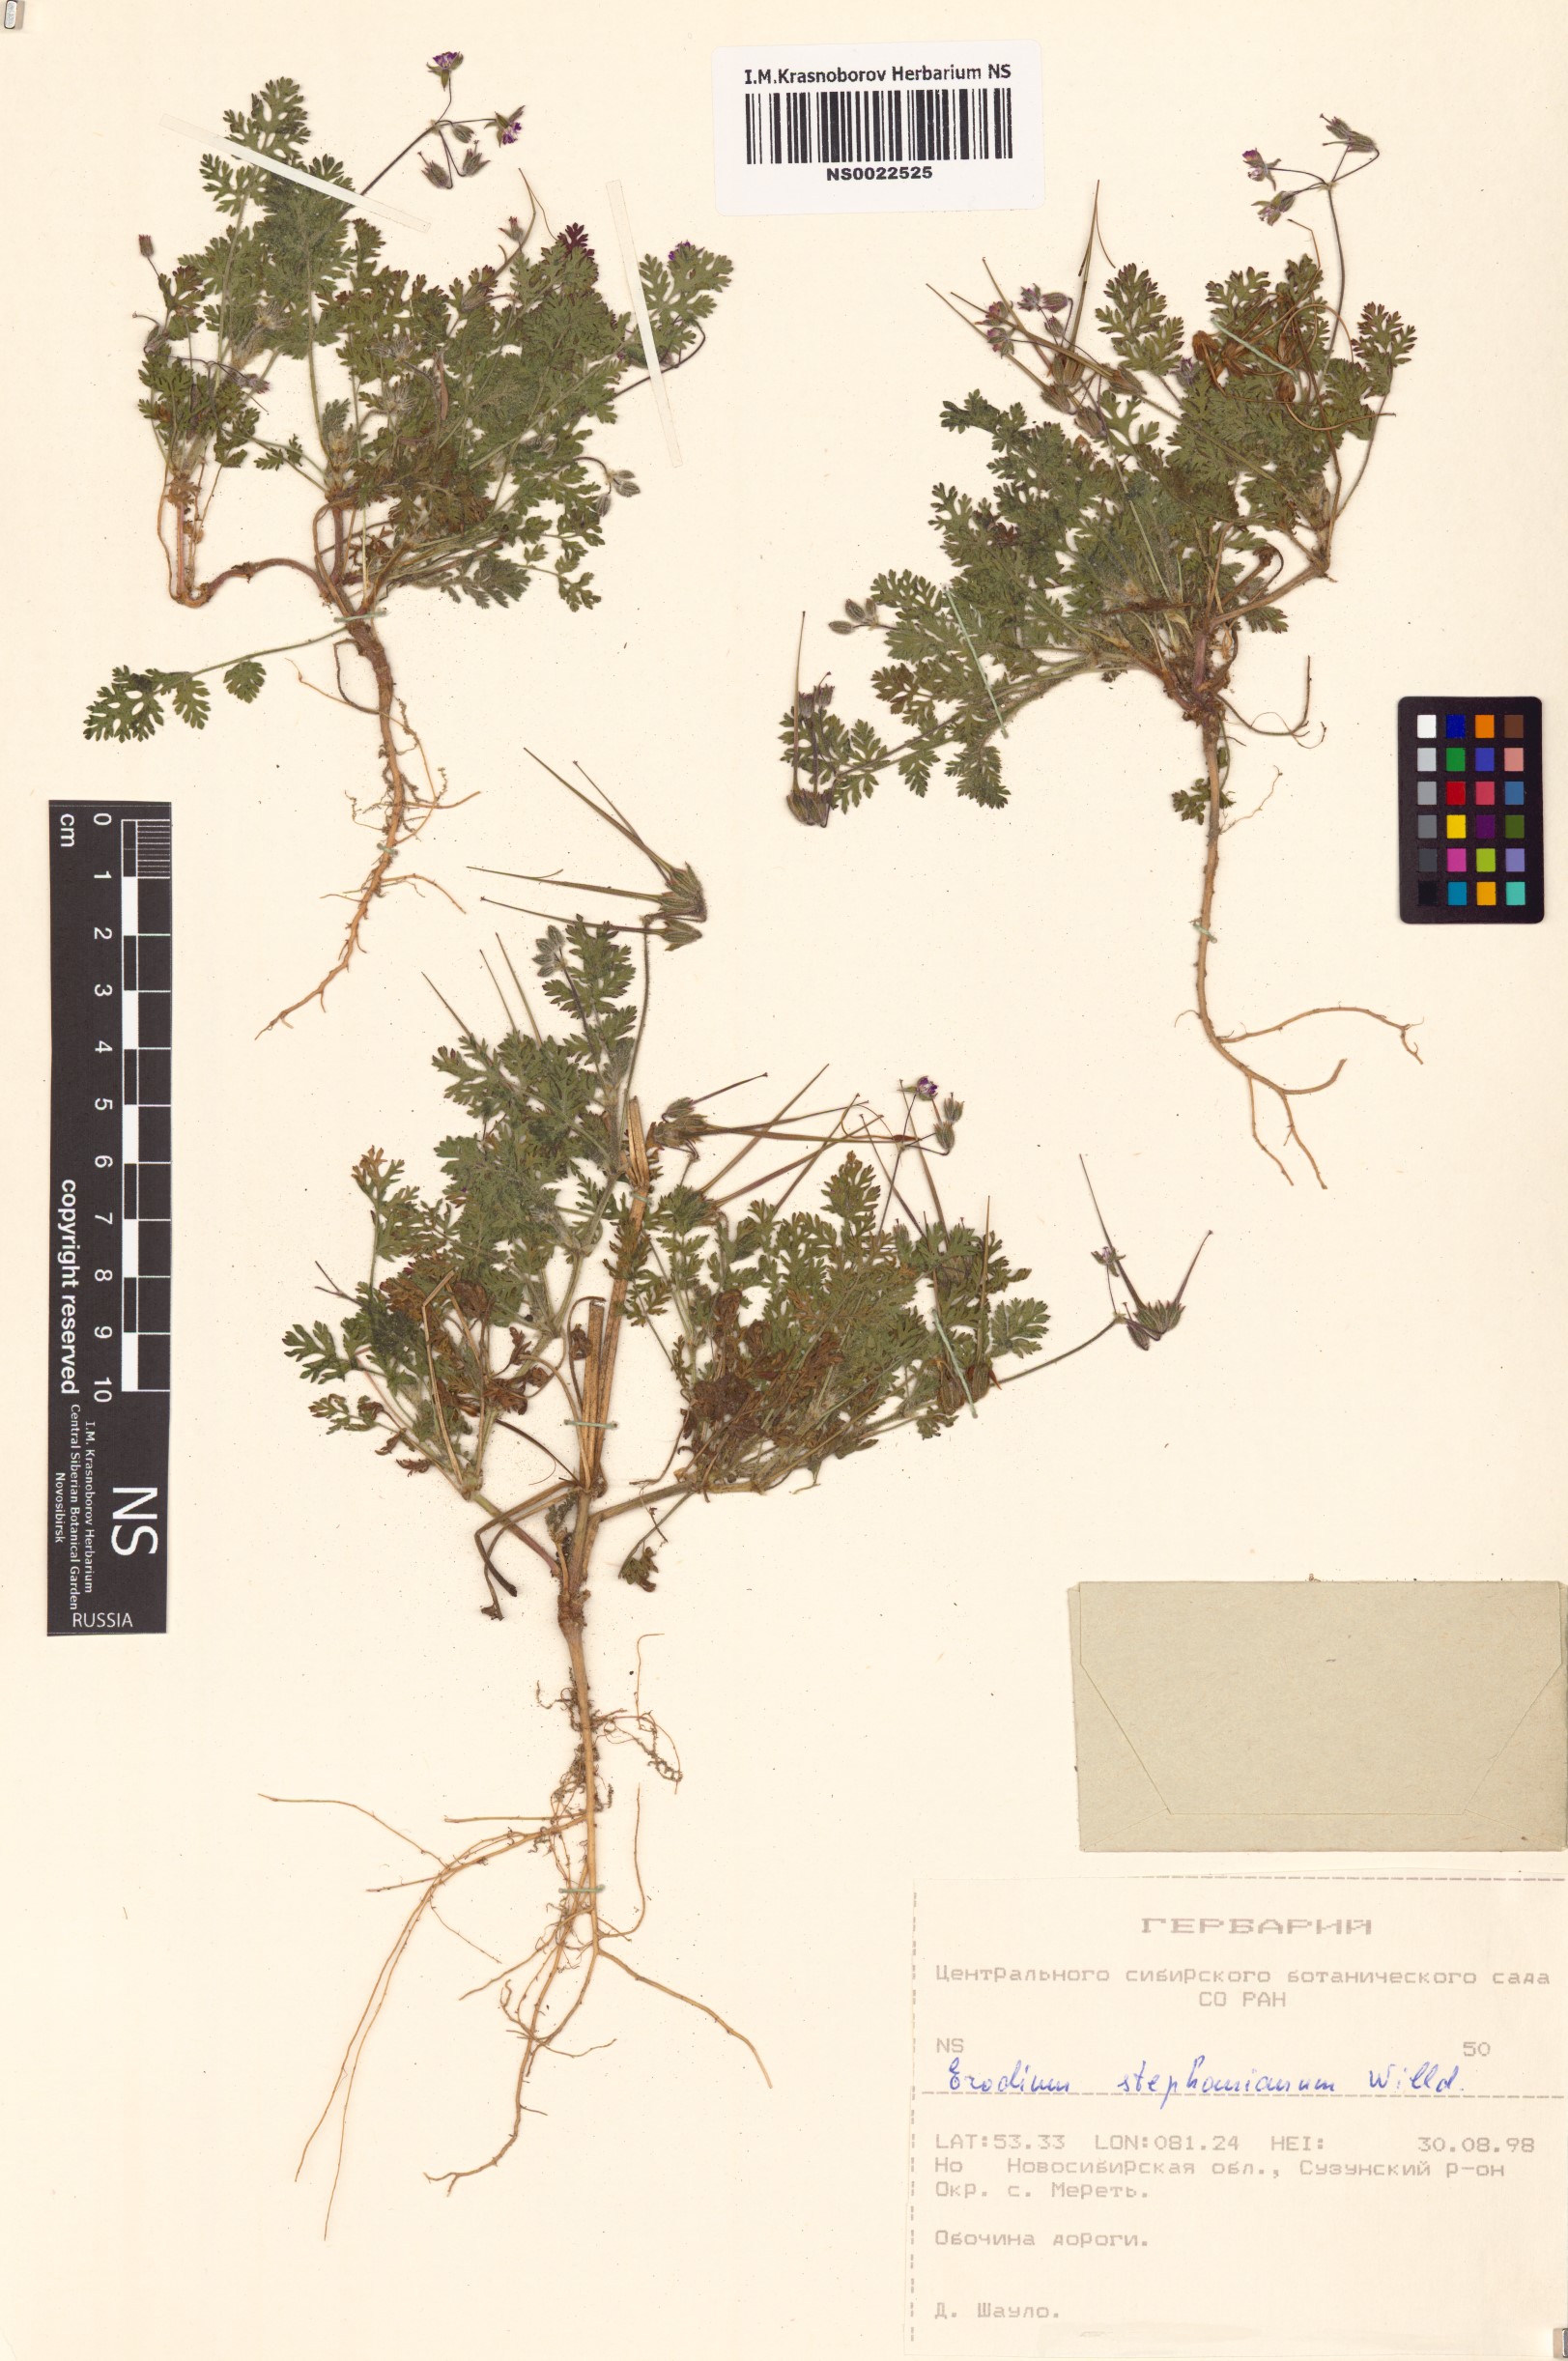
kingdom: Plantae
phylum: Tracheophyta
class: Magnoliopsida
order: Geraniales
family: Geraniaceae
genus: Erodium
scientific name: Erodium stephanianum
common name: Stephen's stork's bill
